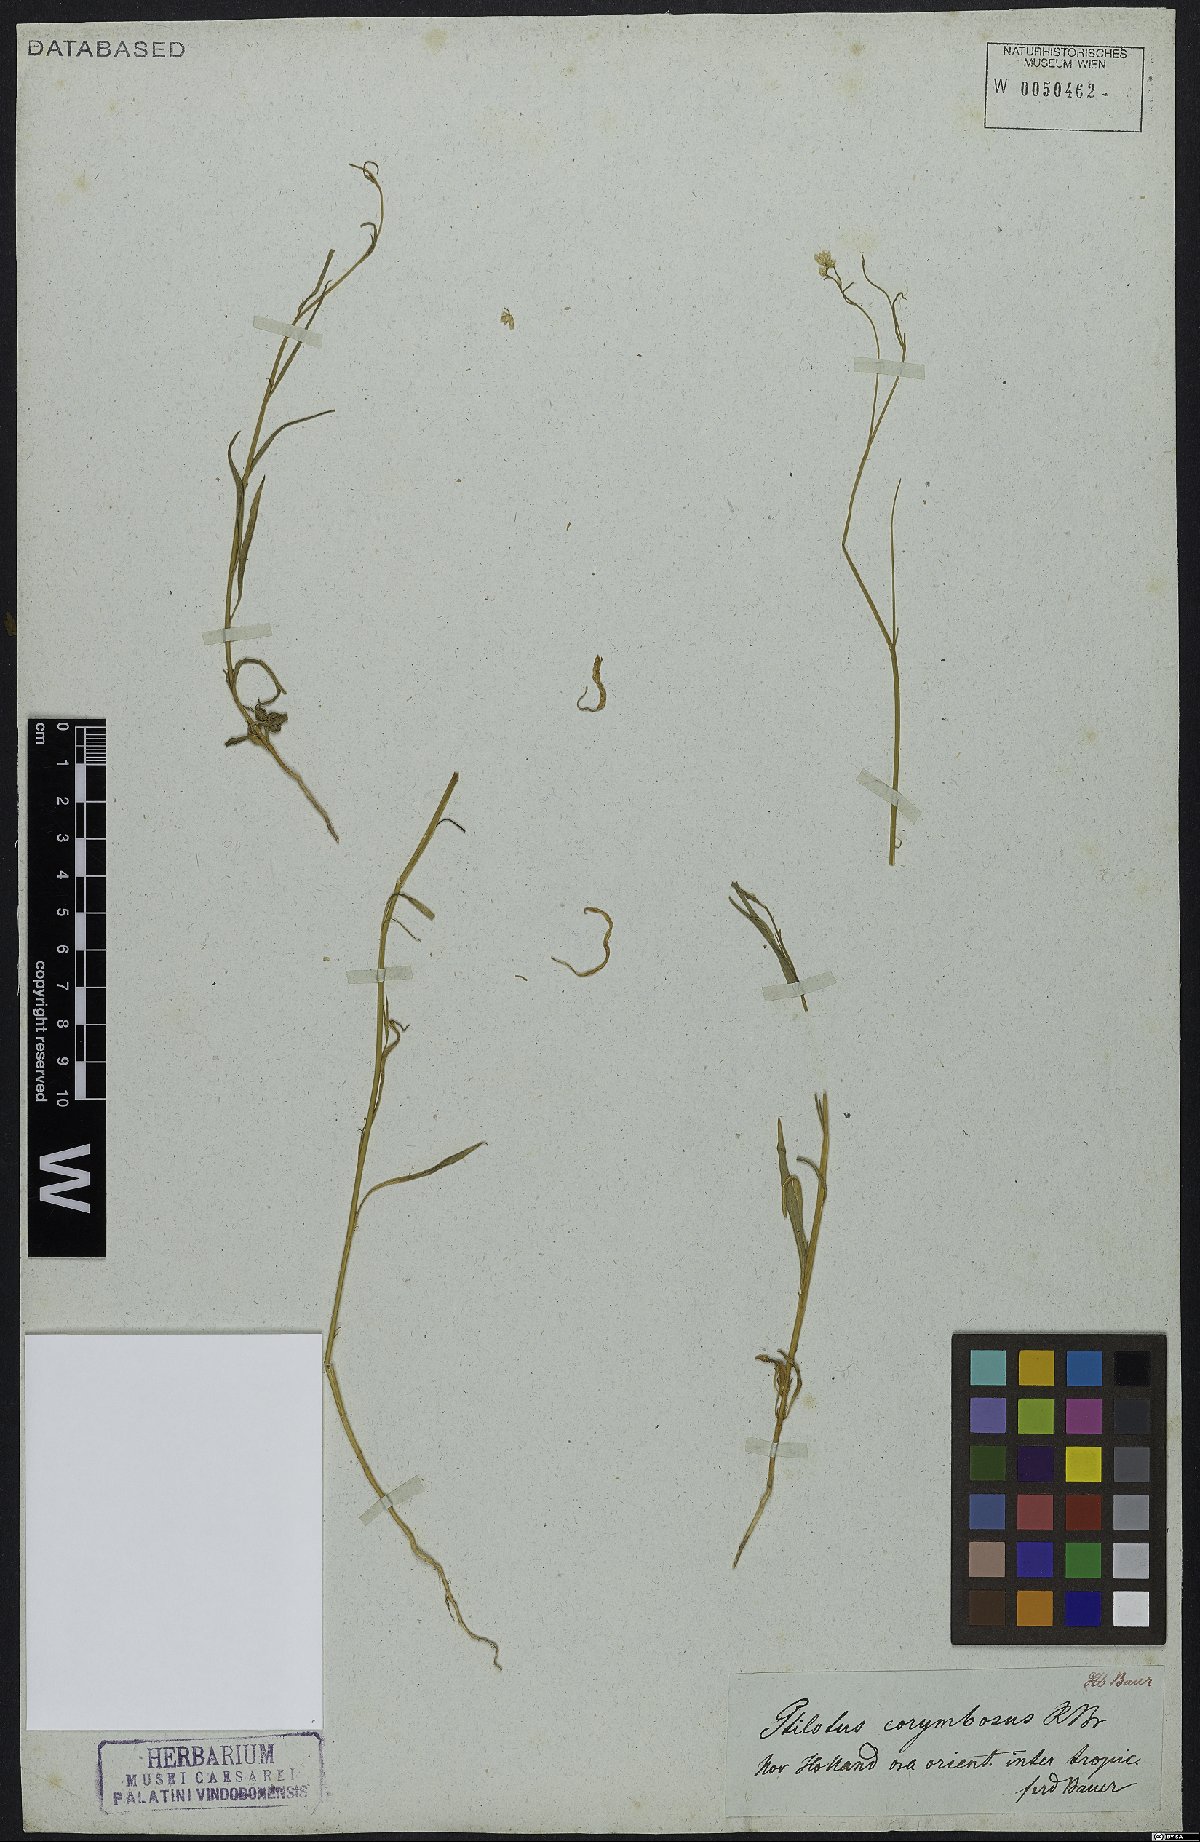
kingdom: Plantae
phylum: Tracheophyta
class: Magnoliopsida
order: Caryophyllales
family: Amaranthaceae
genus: Ptilotus
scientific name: Ptilotus corymbosus
